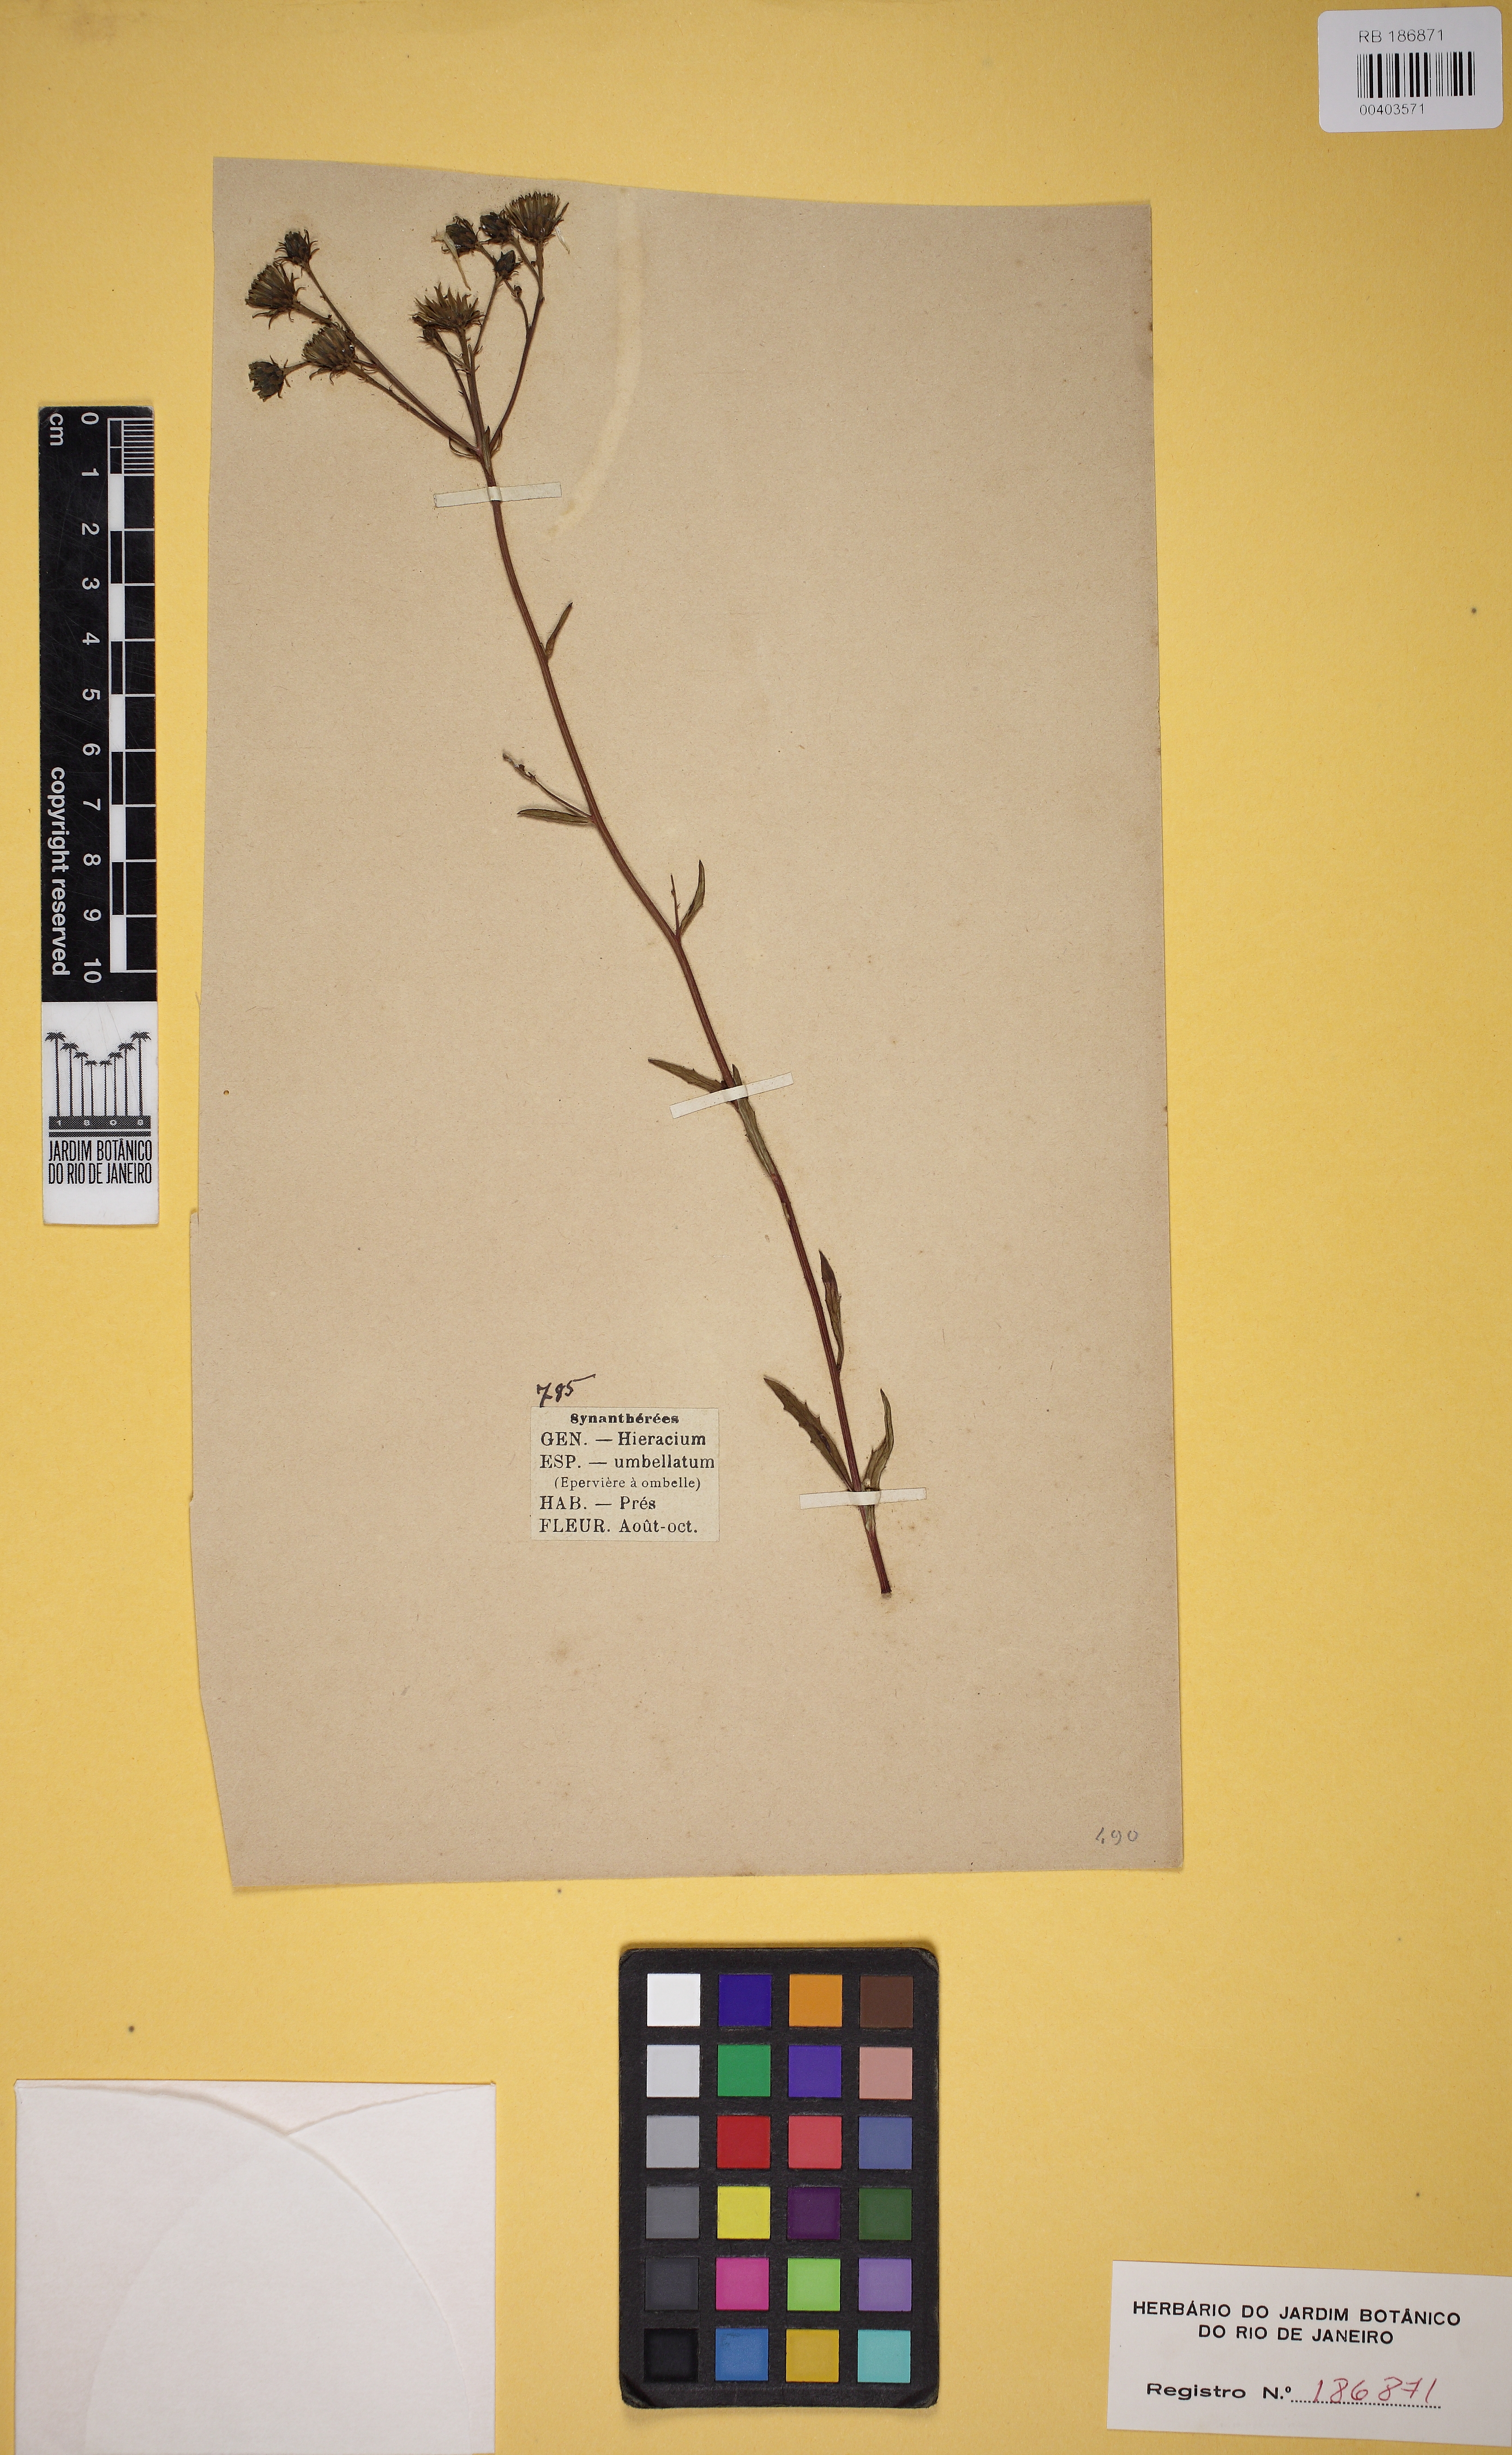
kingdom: Plantae
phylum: Tracheophyta
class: Magnoliopsida
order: Asterales
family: Asteraceae
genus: Hieracium
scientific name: Hieracium umbellatum
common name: Northern hawkweed
